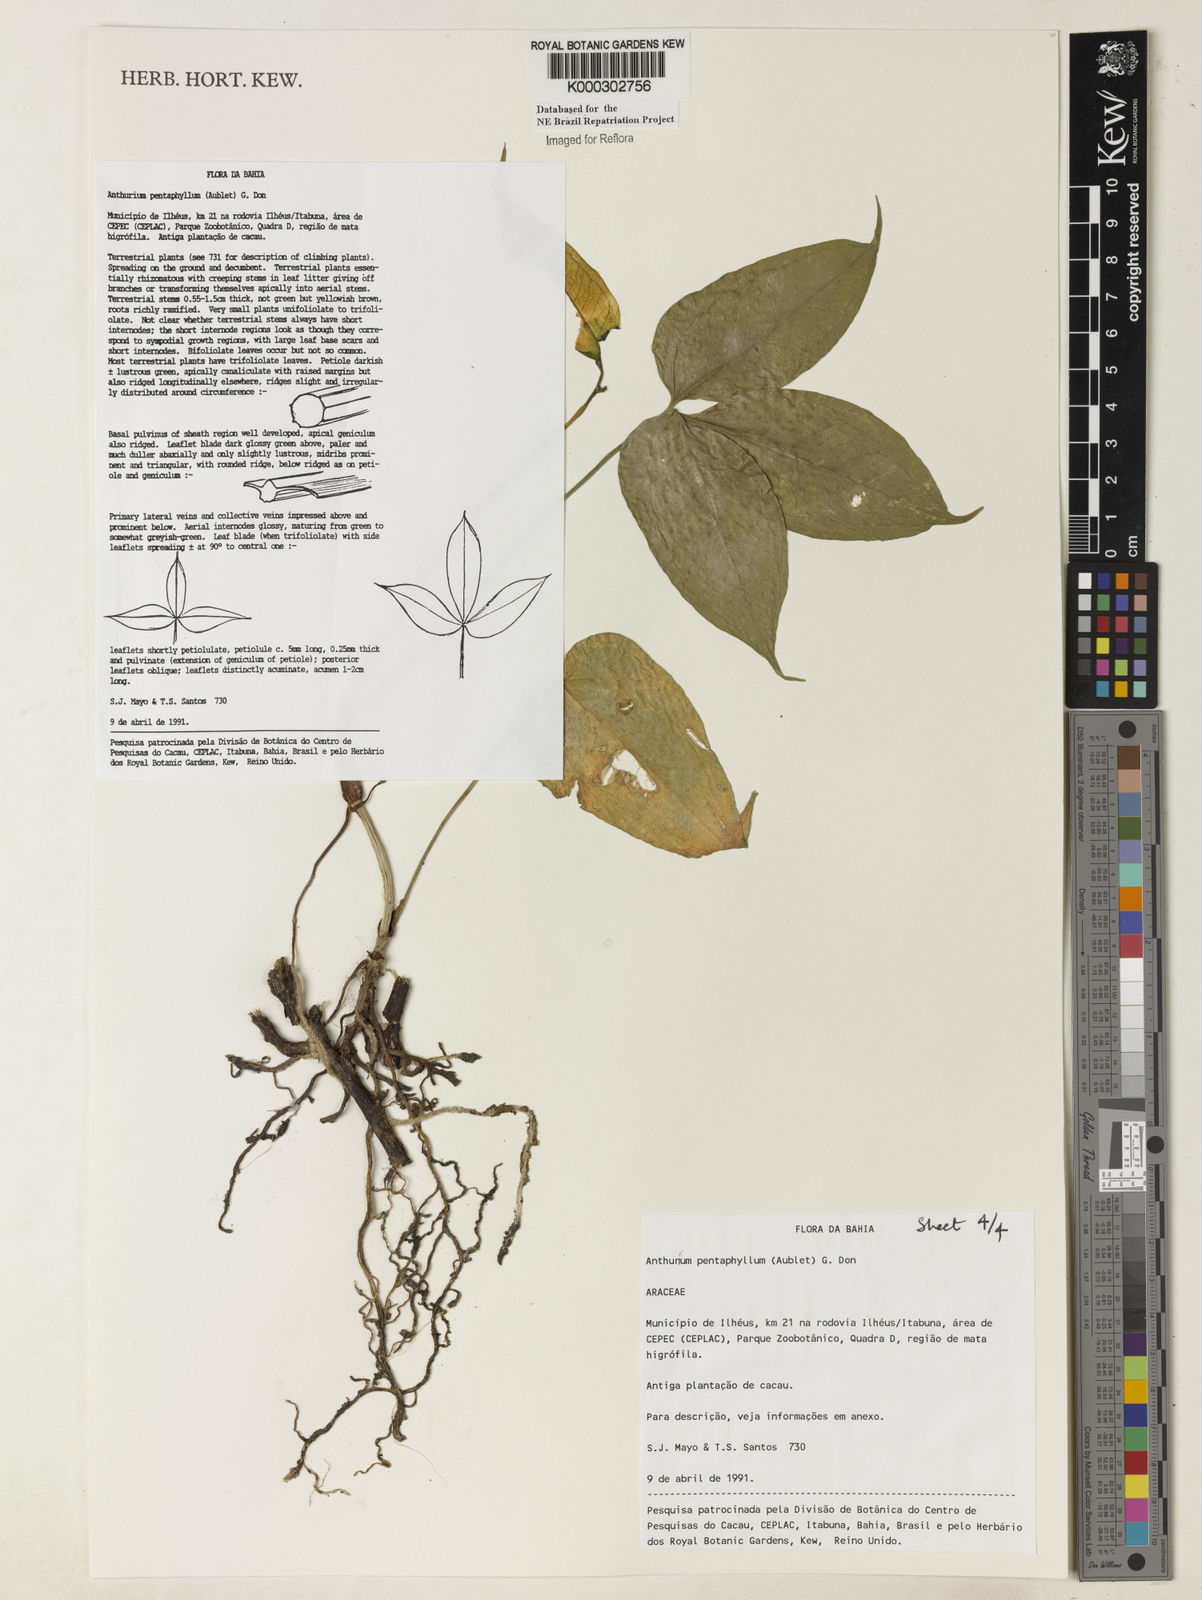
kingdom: Plantae
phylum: Tracheophyta
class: Liliopsida
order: Alismatales
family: Araceae
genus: Anthurium
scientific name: Anthurium pentaphyllum
